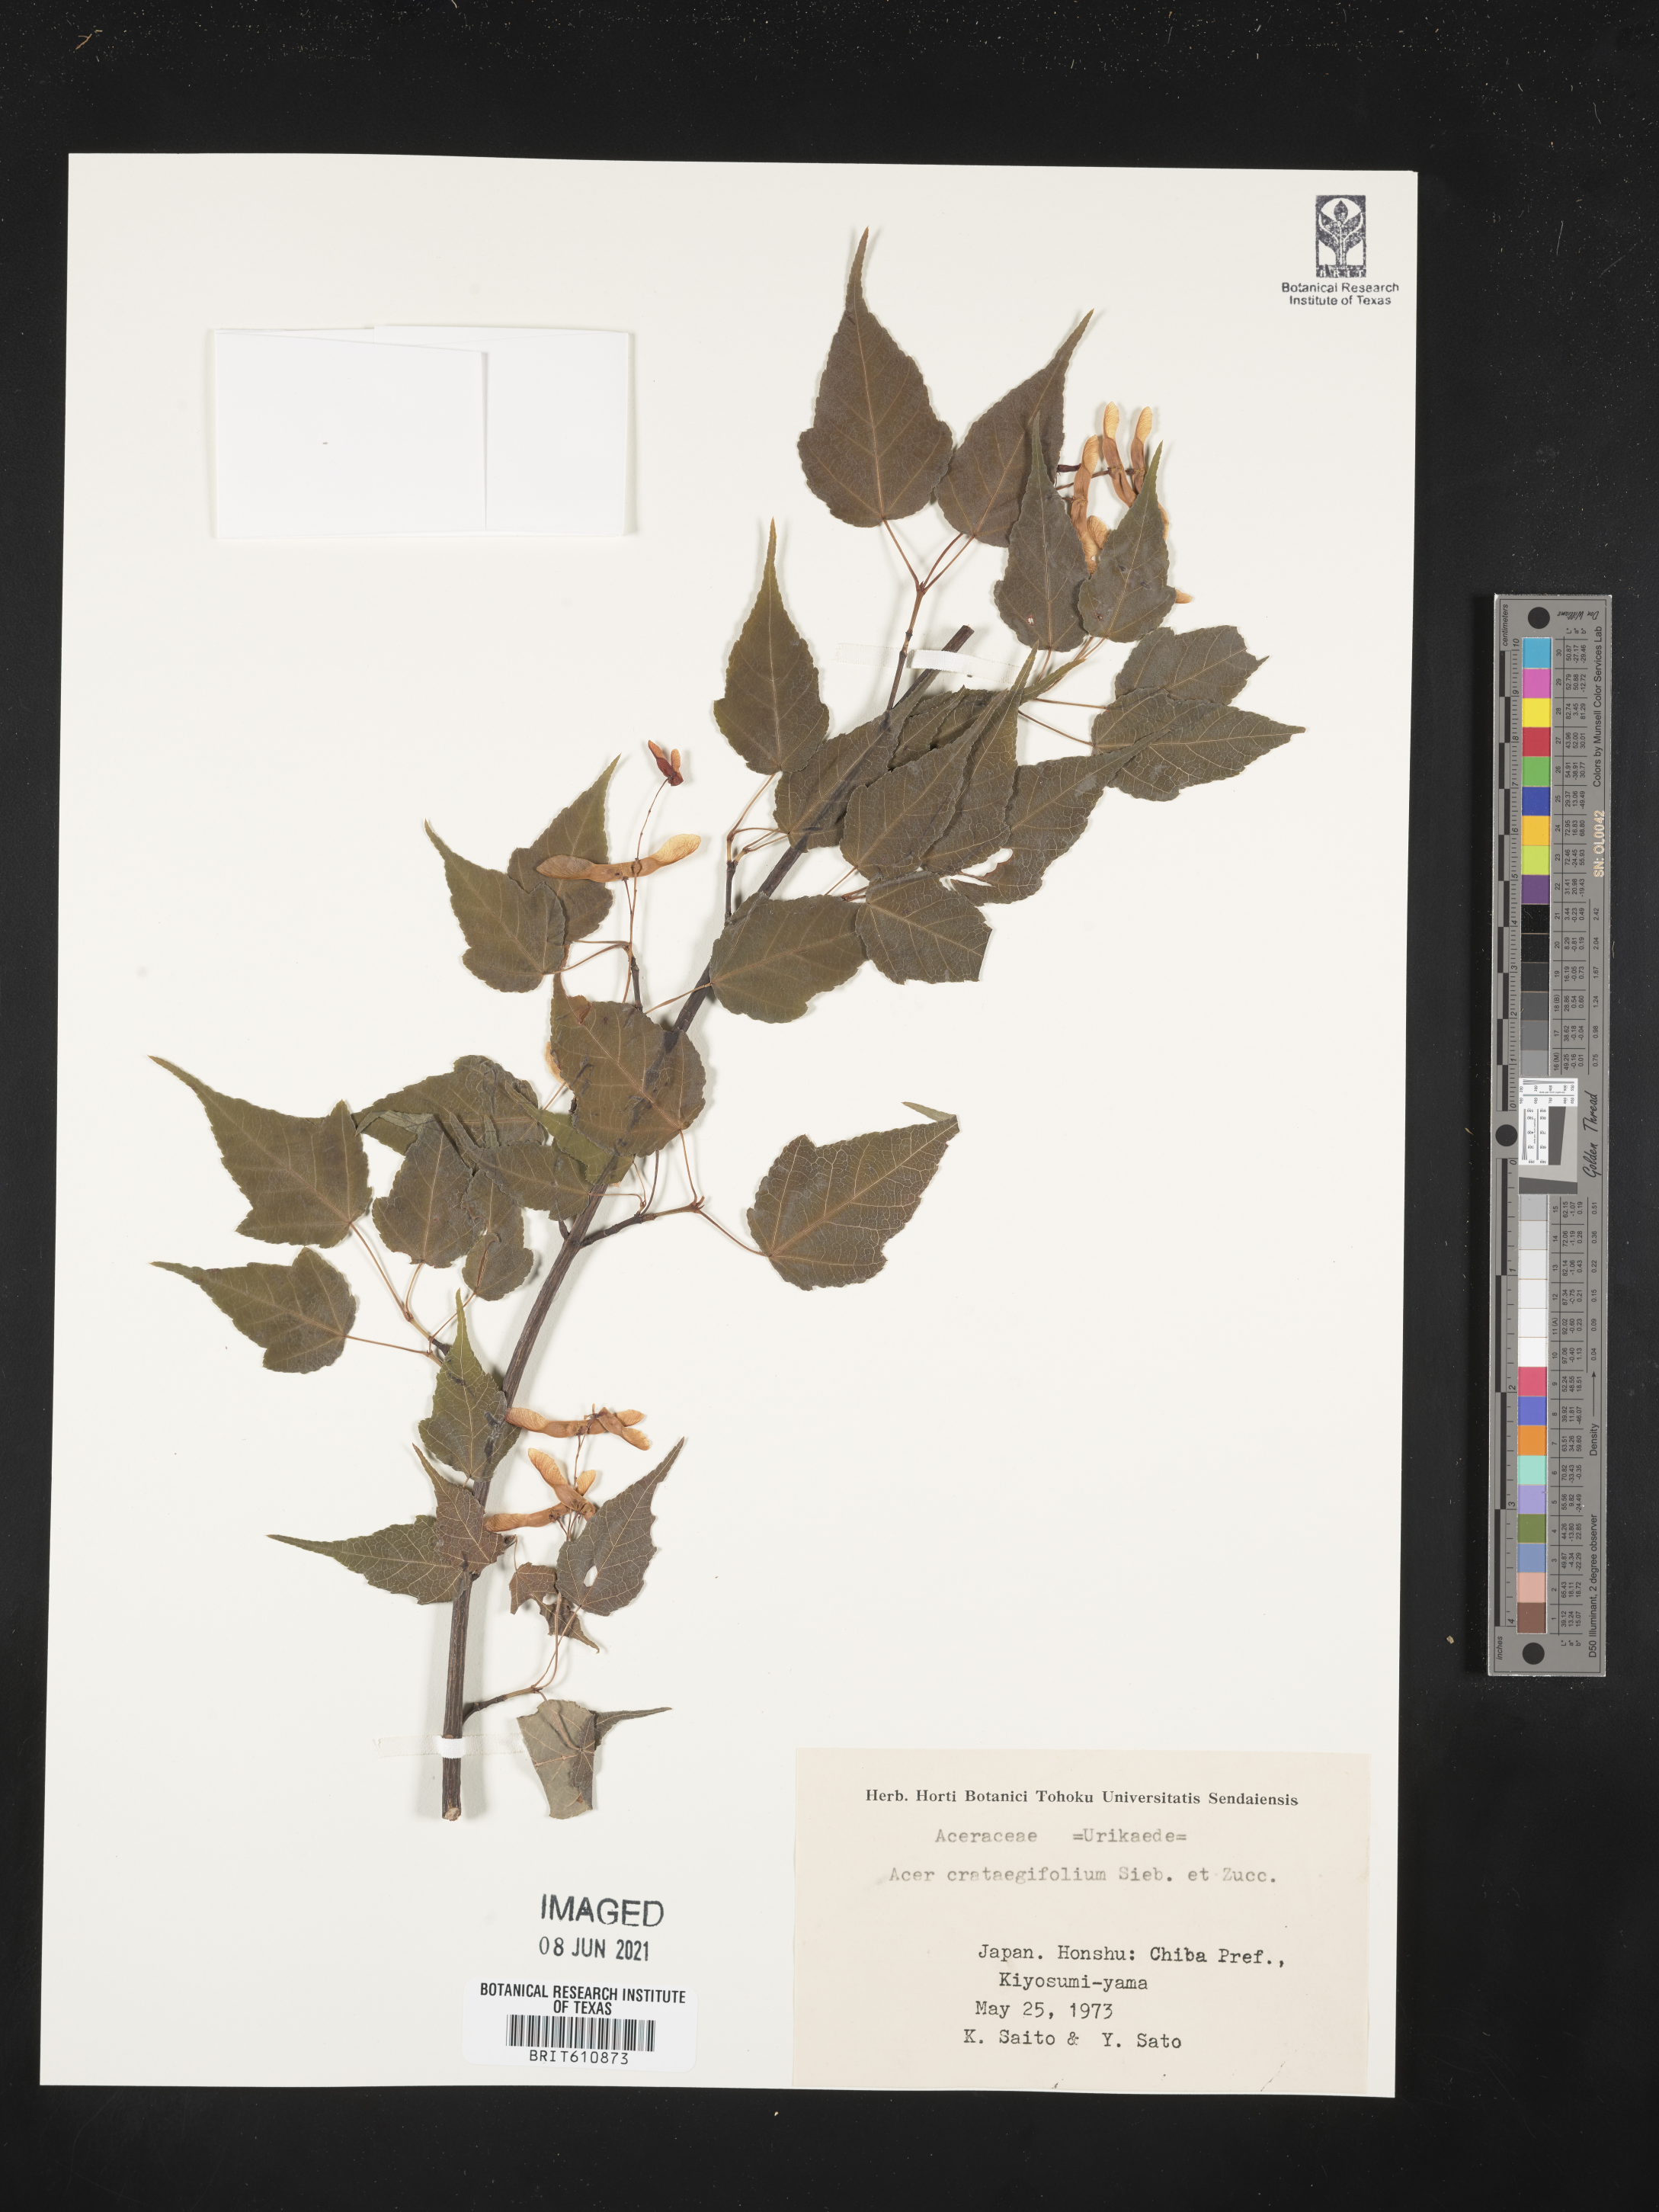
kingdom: Plantae
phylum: Tracheophyta
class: Magnoliopsida
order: Sapindales
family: Sapindaceae
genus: Acer
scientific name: Acer crataegifolium
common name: Hawthorn-leaf maple
